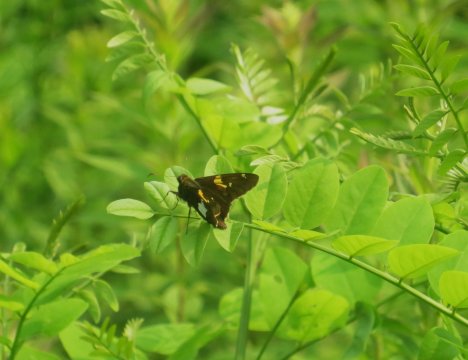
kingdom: Animalia
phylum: Arthropoda
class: Insecta
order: Lepidoptera
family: Hesperiidae
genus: Epargyreus
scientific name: Epargyreus clarus
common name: Silver-spotted Skipper
